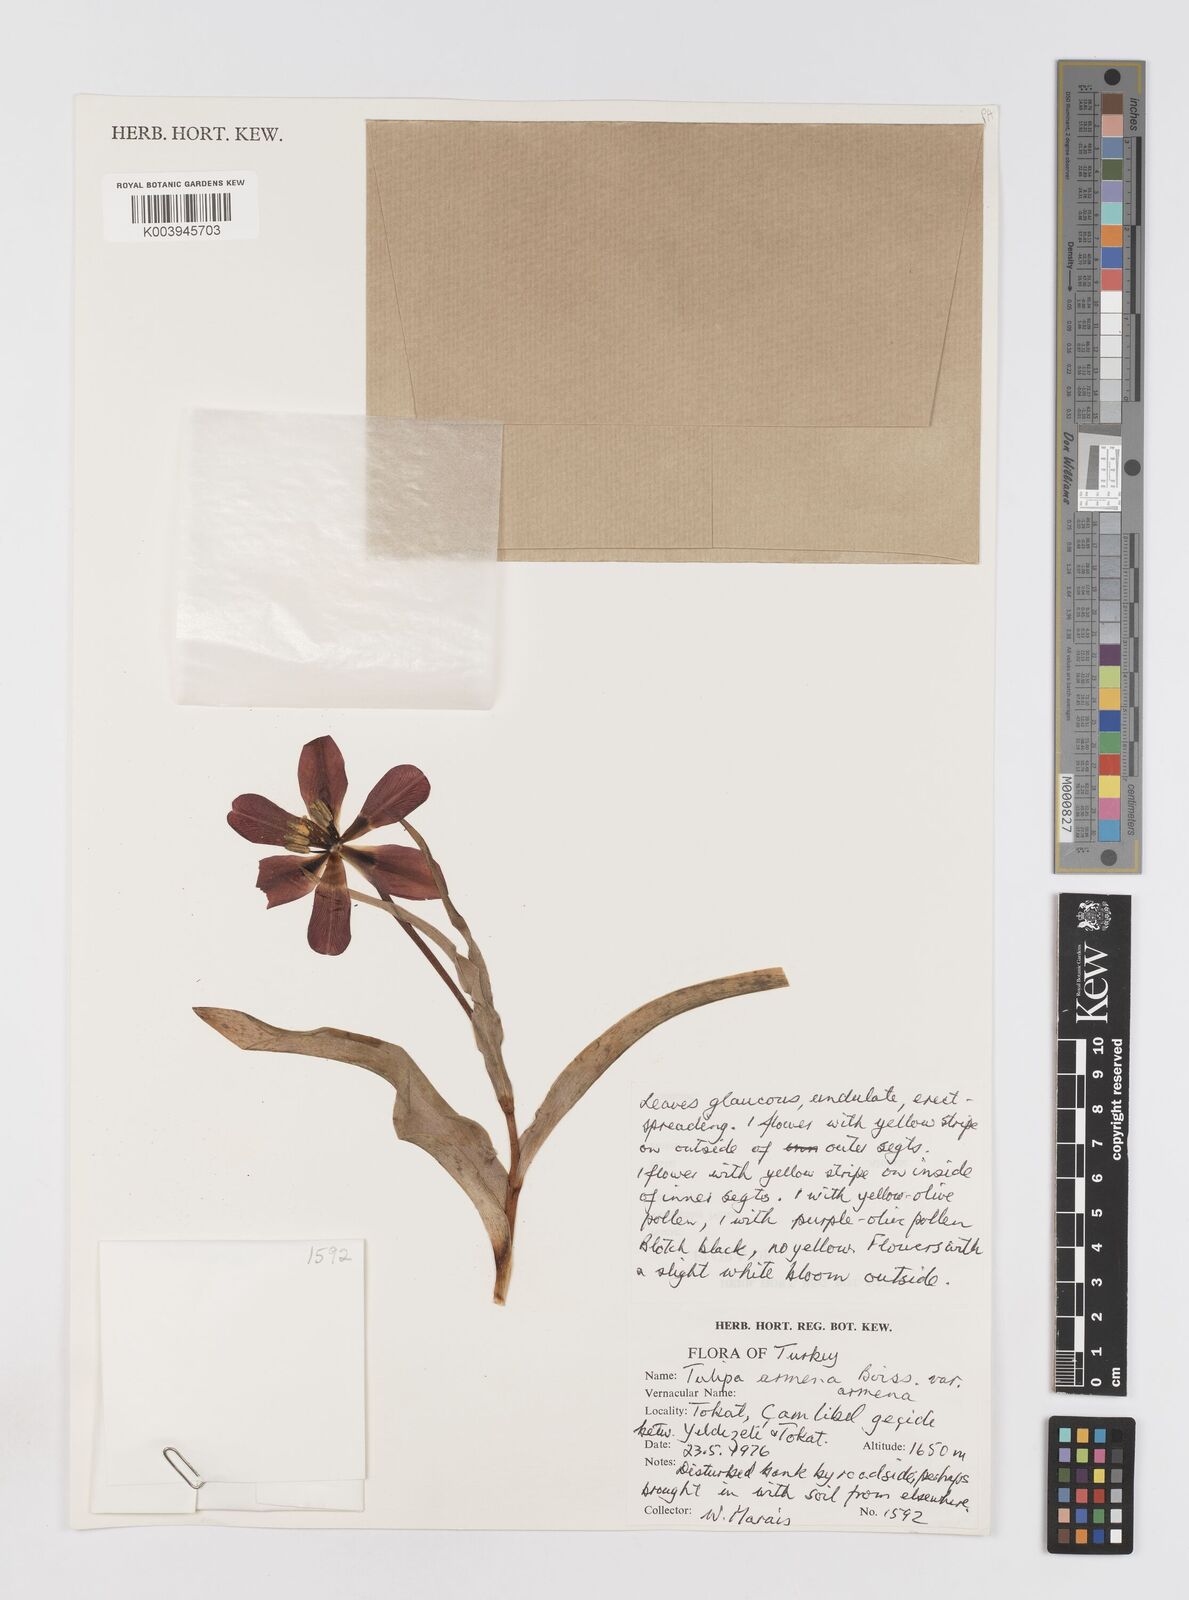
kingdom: Plantae
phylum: Tracheophyta
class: Liliopsida
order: Liliales
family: Liliaceae
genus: Tulipa
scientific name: Tulipa armena
